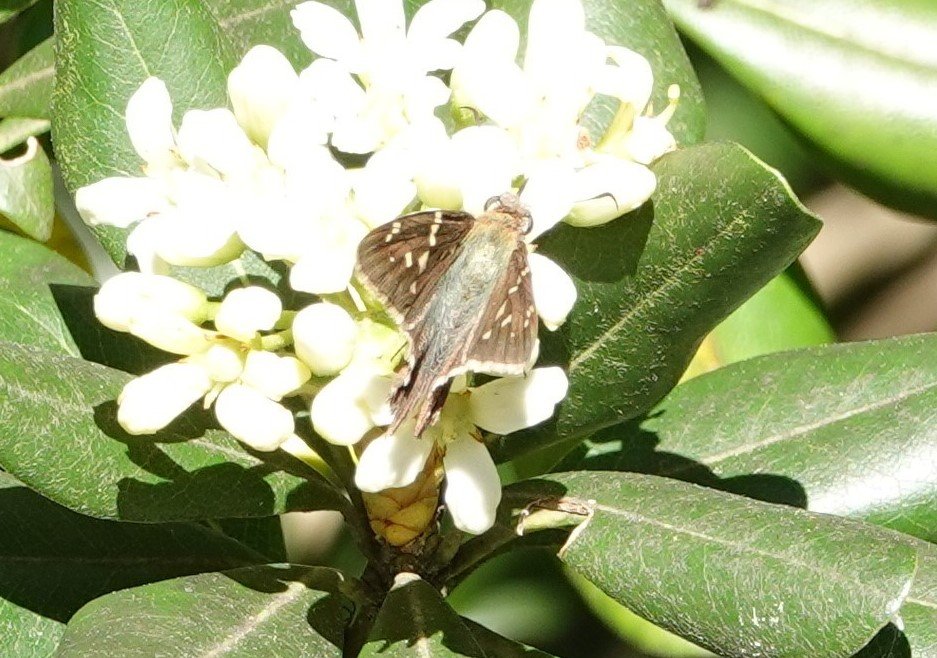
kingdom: Animalia
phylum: Arthropoda
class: Insecta
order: Lepidoptera
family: Hesperiidae
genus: Urbanus
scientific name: Urbanus proteus
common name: Long-tailed Skipper
